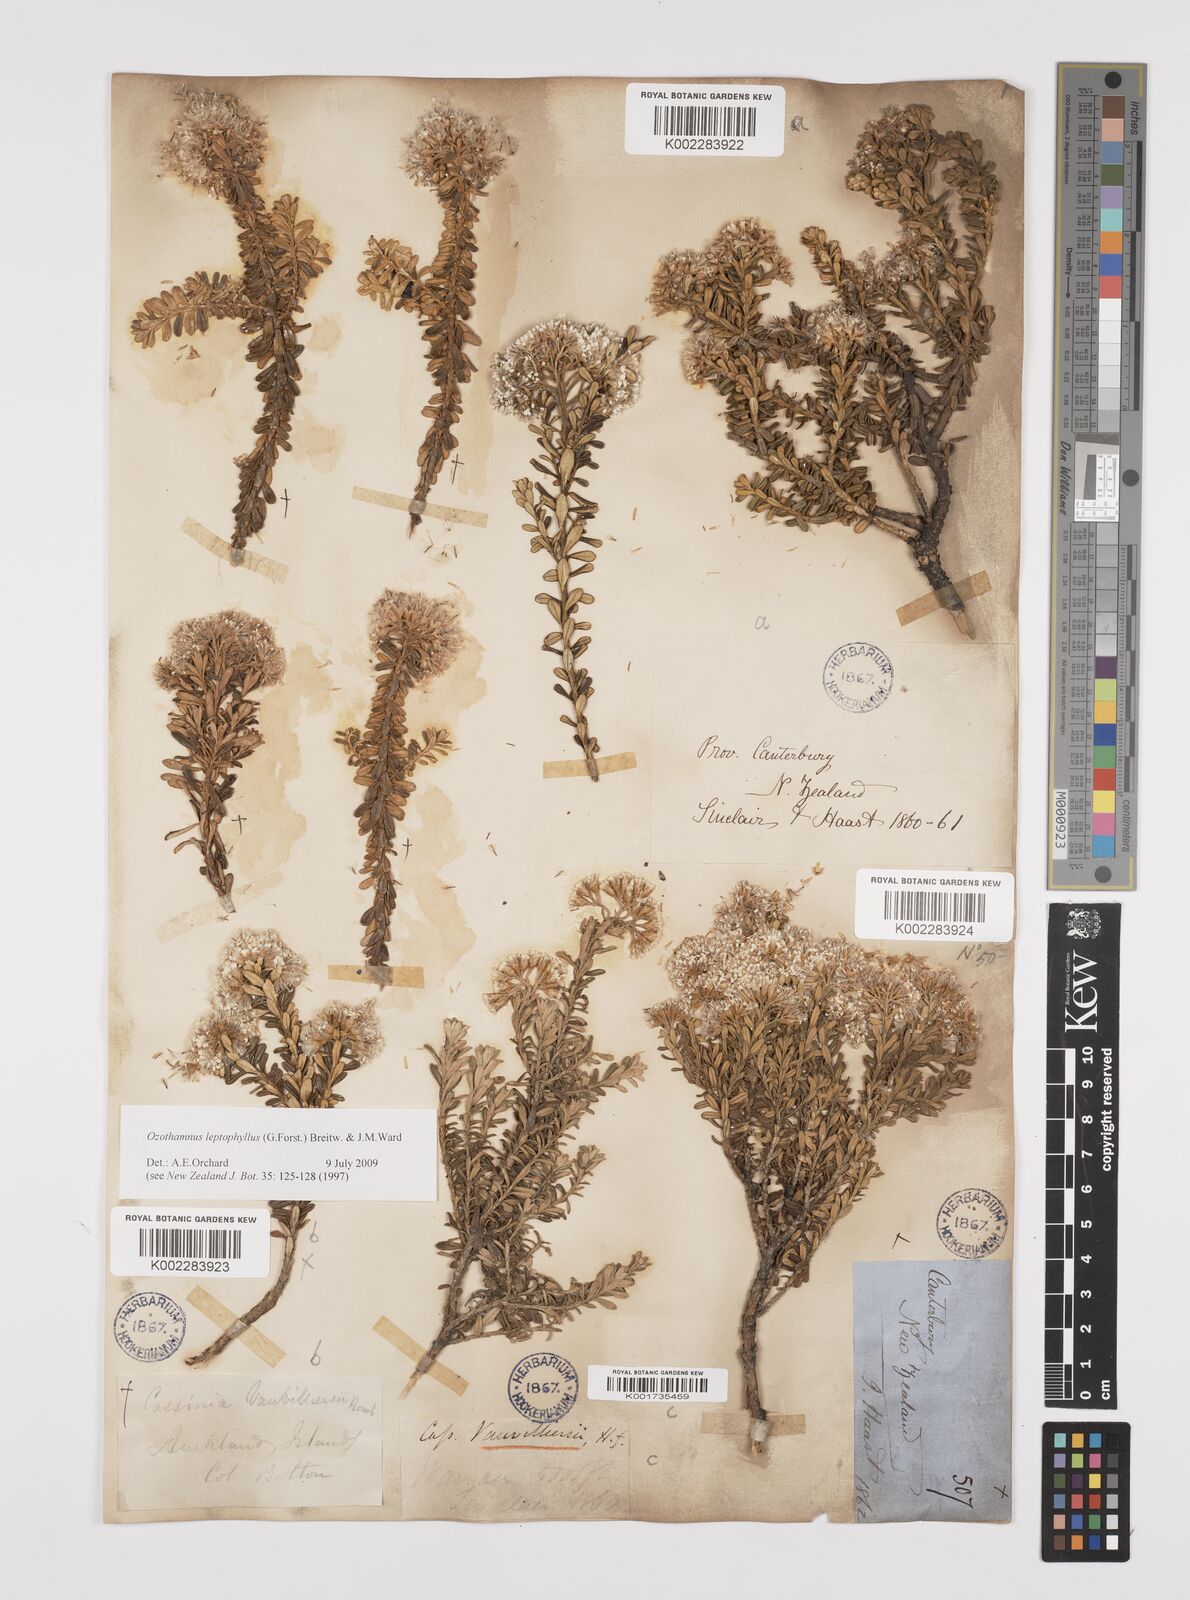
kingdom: Plantae
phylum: Tracheophyta
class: Magnoliopsida
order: Asterales
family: Asteraceae
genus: Ozothamnus
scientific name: Ozothamnus leptophyllus
